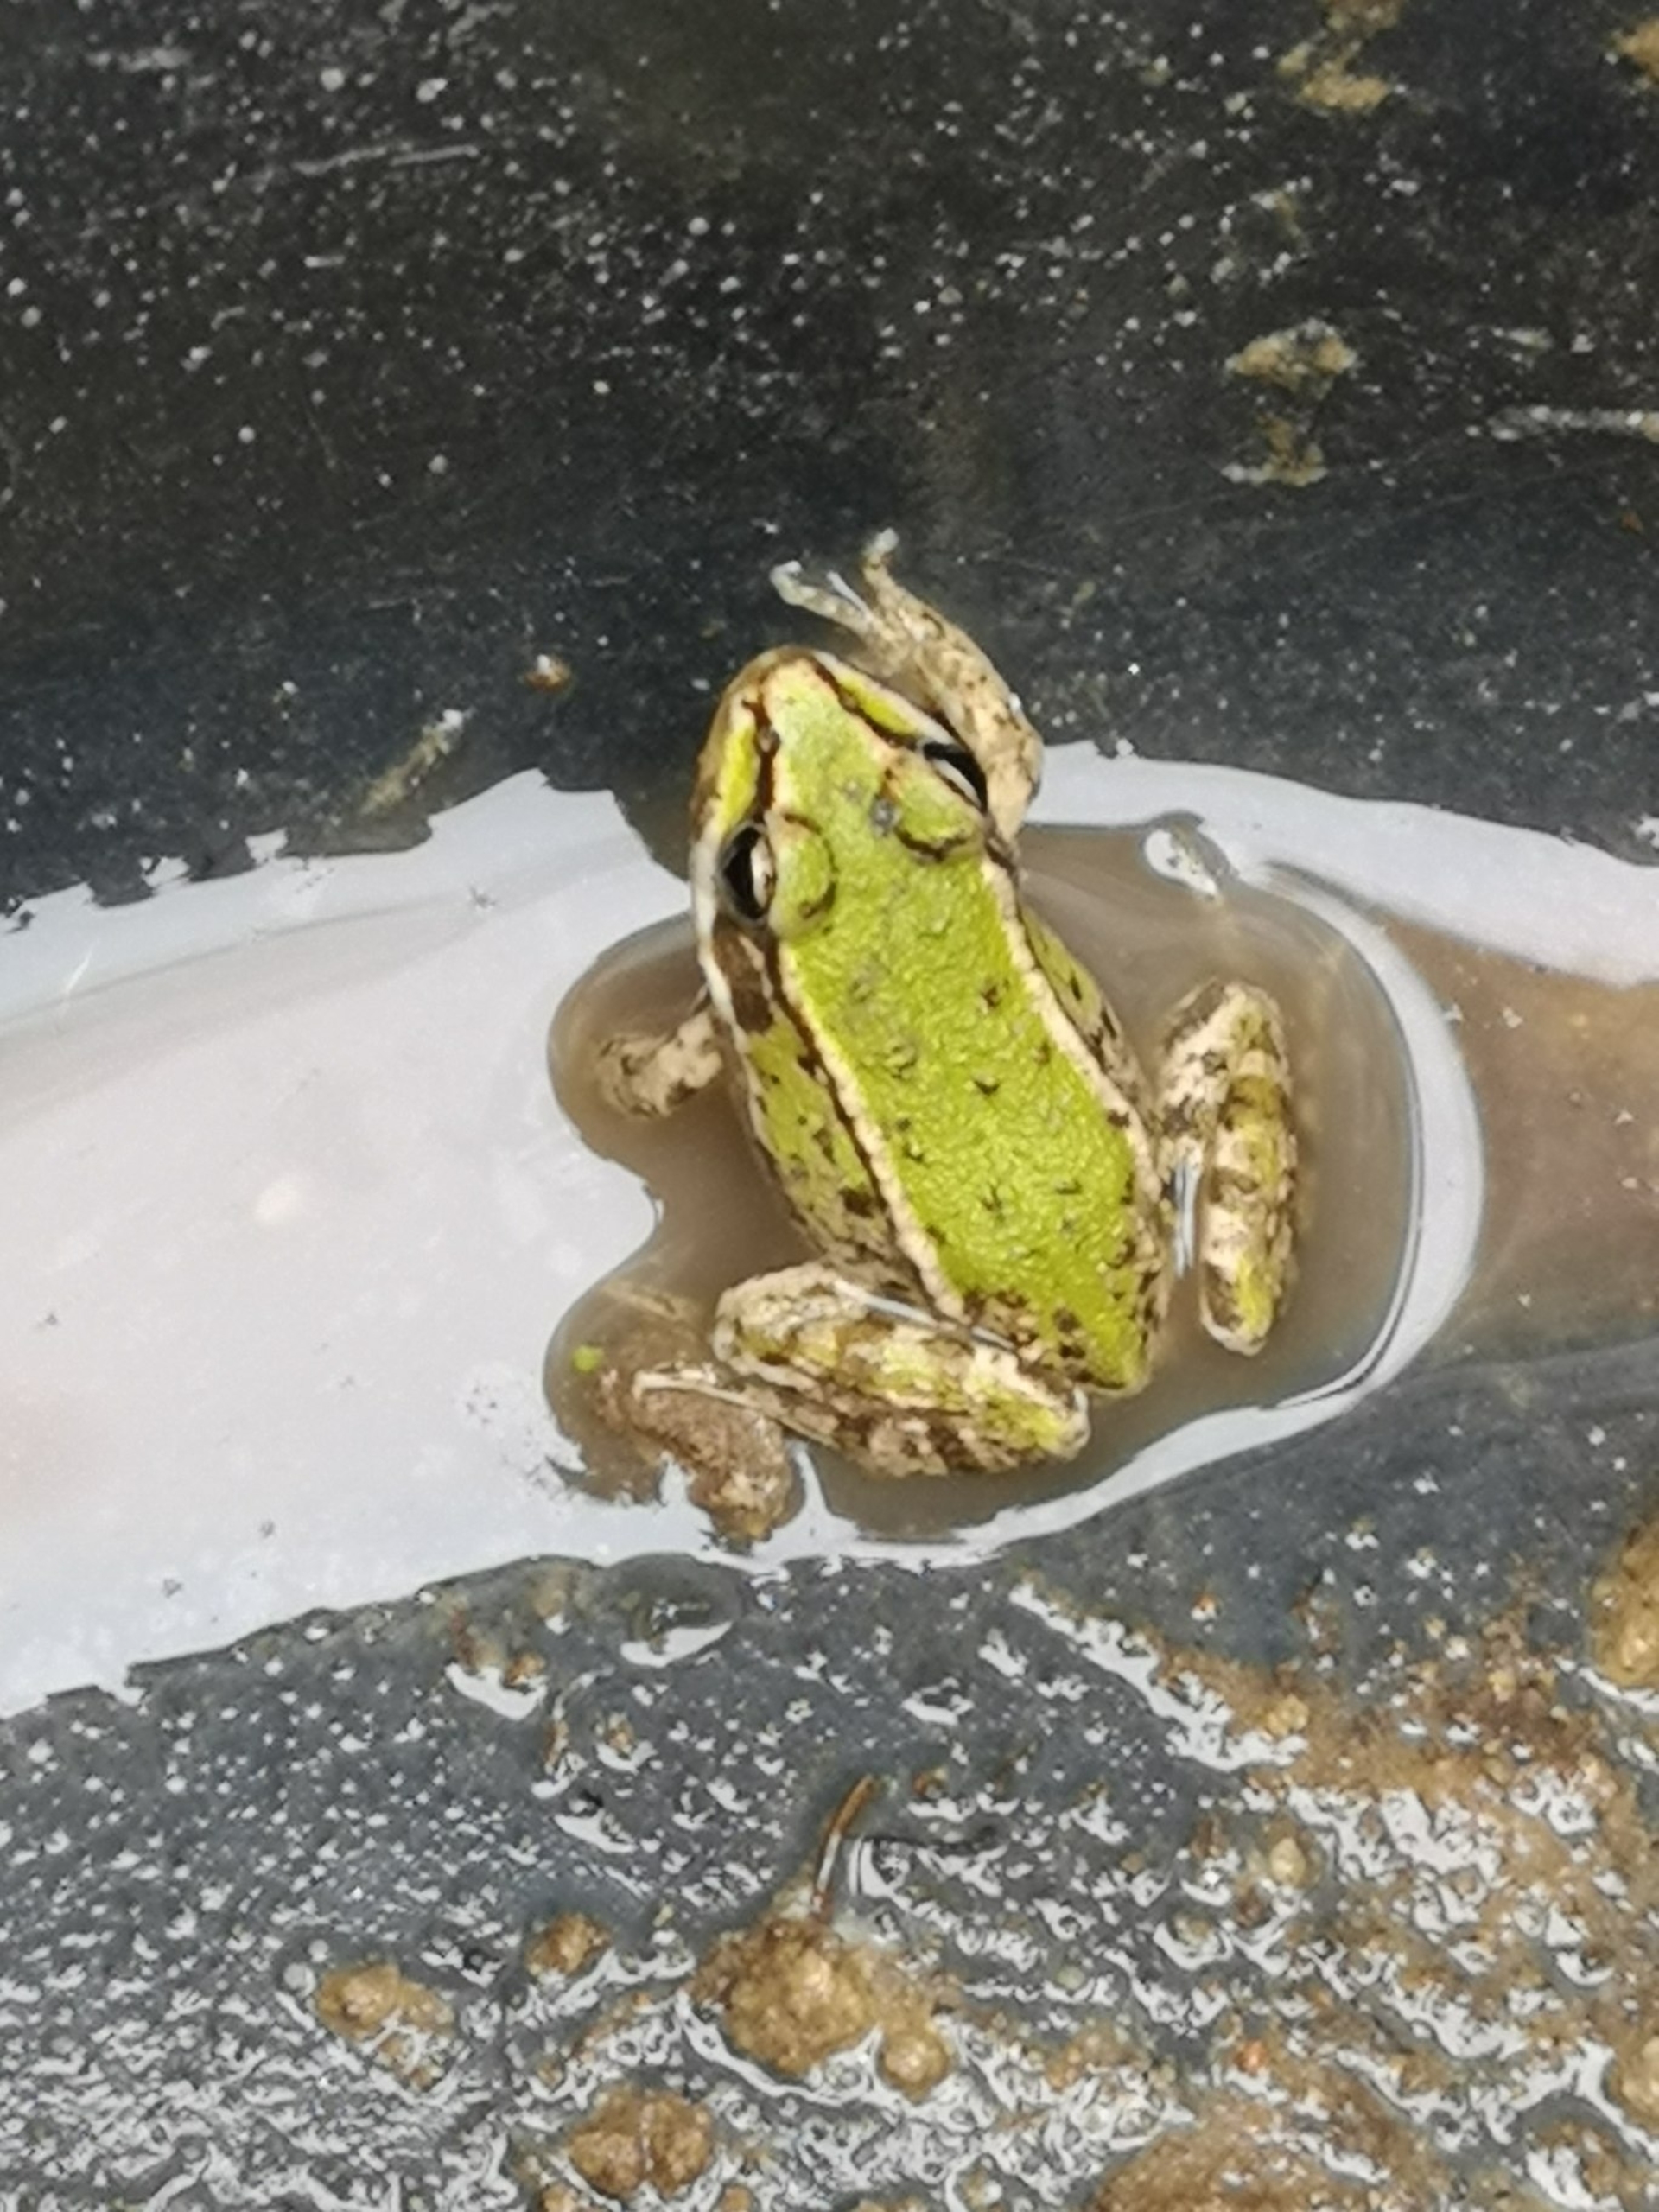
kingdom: Animalia
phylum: Chordata
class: Amphibia
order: Anura
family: Ranidae
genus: Pelophylax
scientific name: Pelophylax lessonae
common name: Grøn frø
